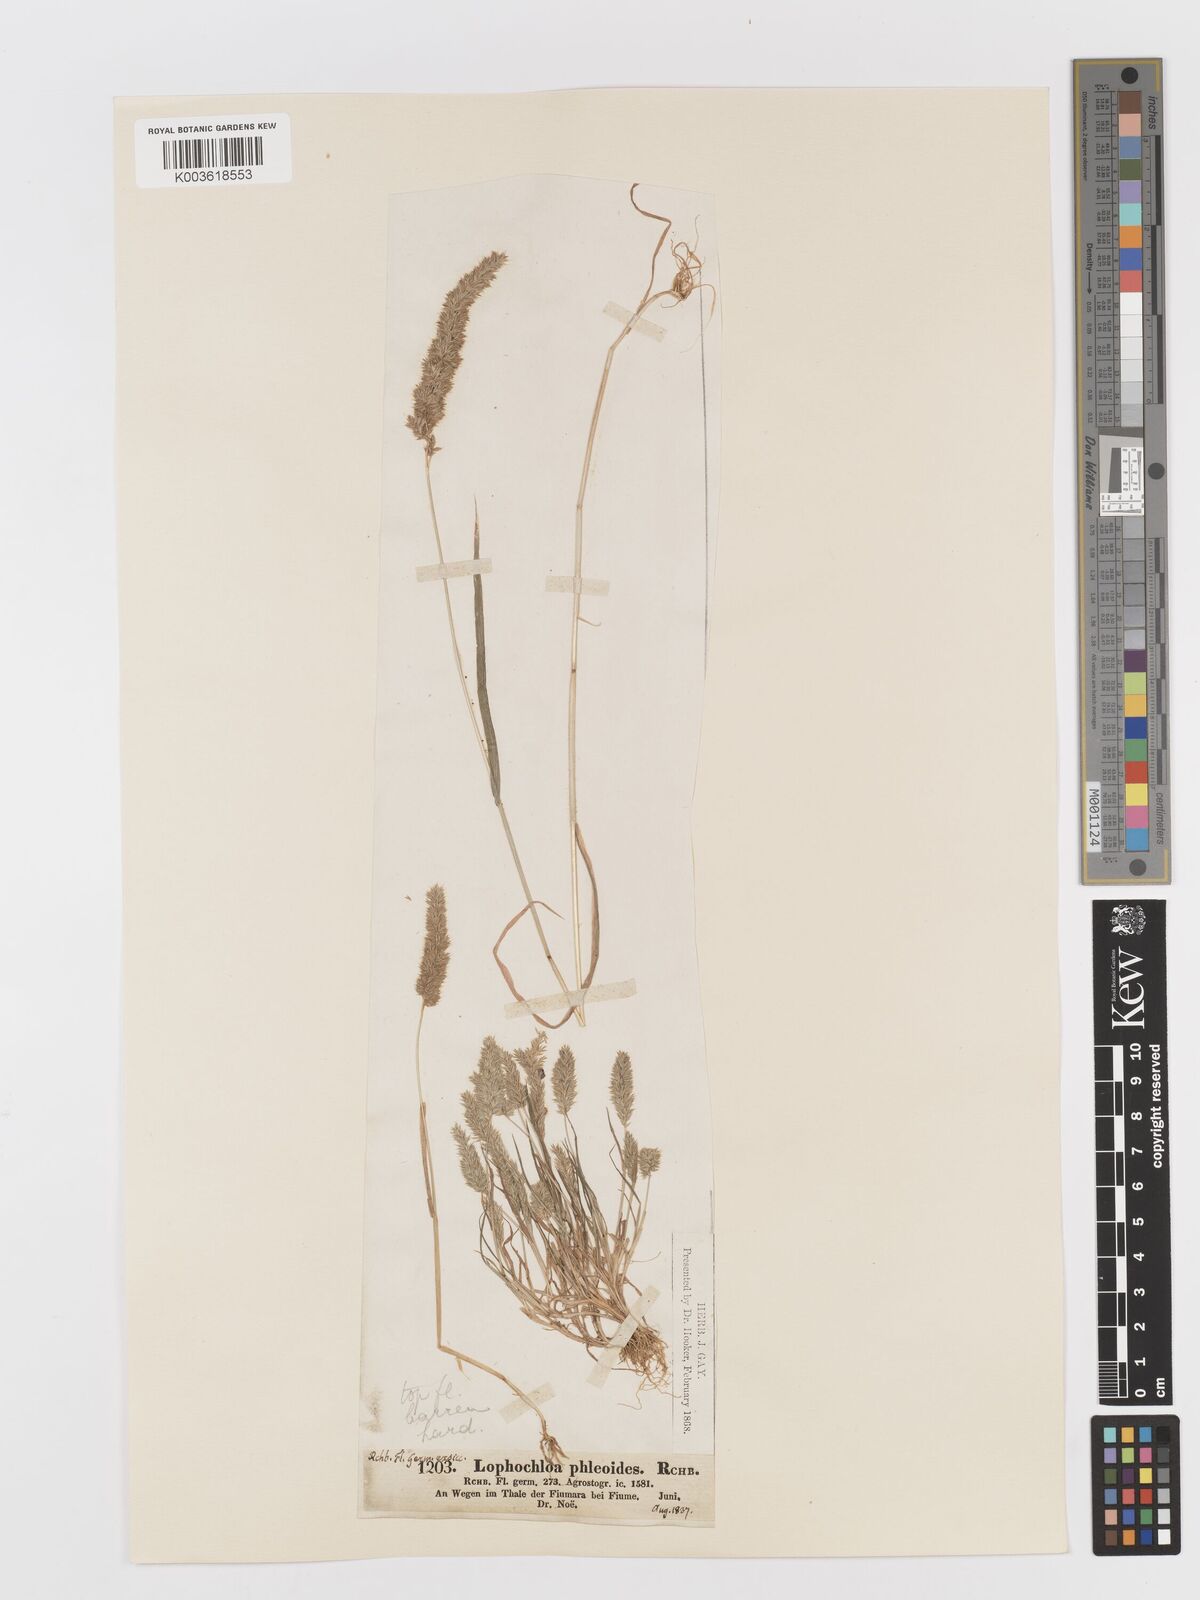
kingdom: Plantae
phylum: Tracheophyta
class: Liliopsida
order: Poales
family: Poaceae
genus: Rostraria
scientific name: Rostraria cristata
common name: Mediterranean hair-grass
